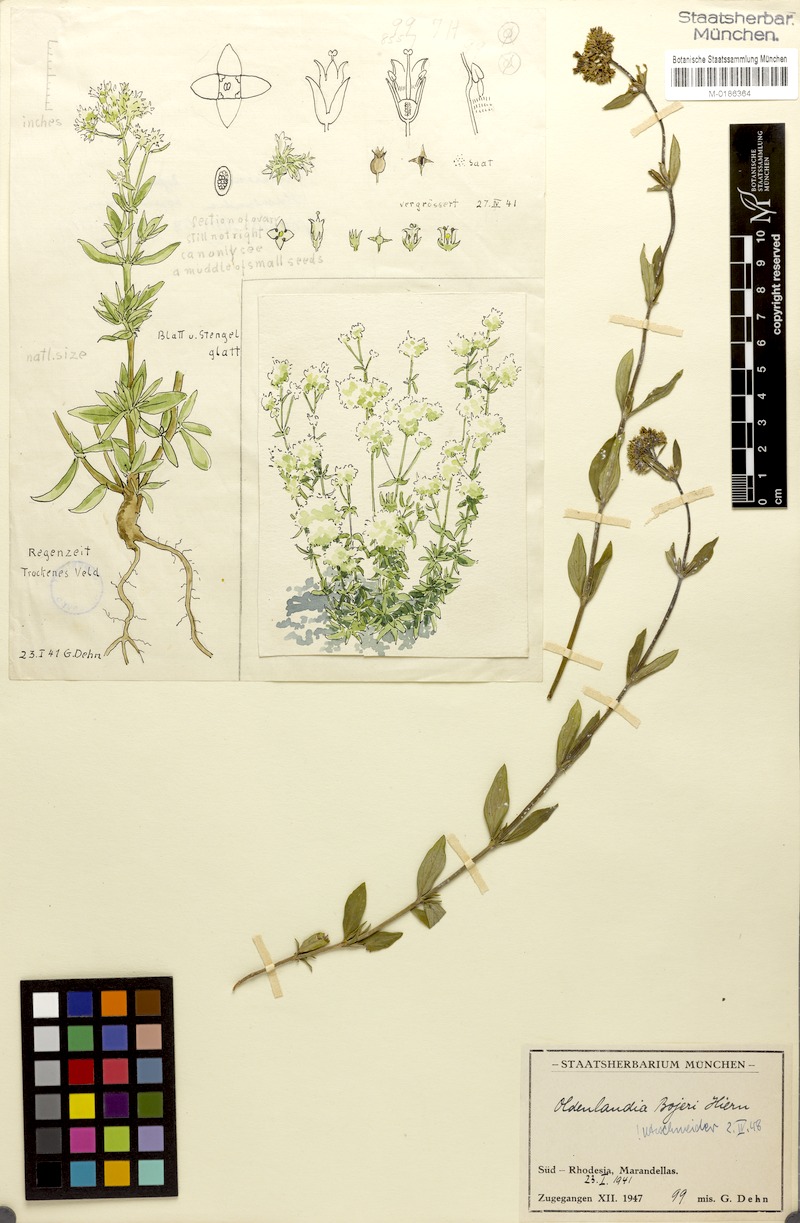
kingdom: Plantae
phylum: Tracheophyta
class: Magnoliopsida
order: Gentianales
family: Rubiaceae
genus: Agathisanthemum
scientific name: Agathisanthemum bojeri
